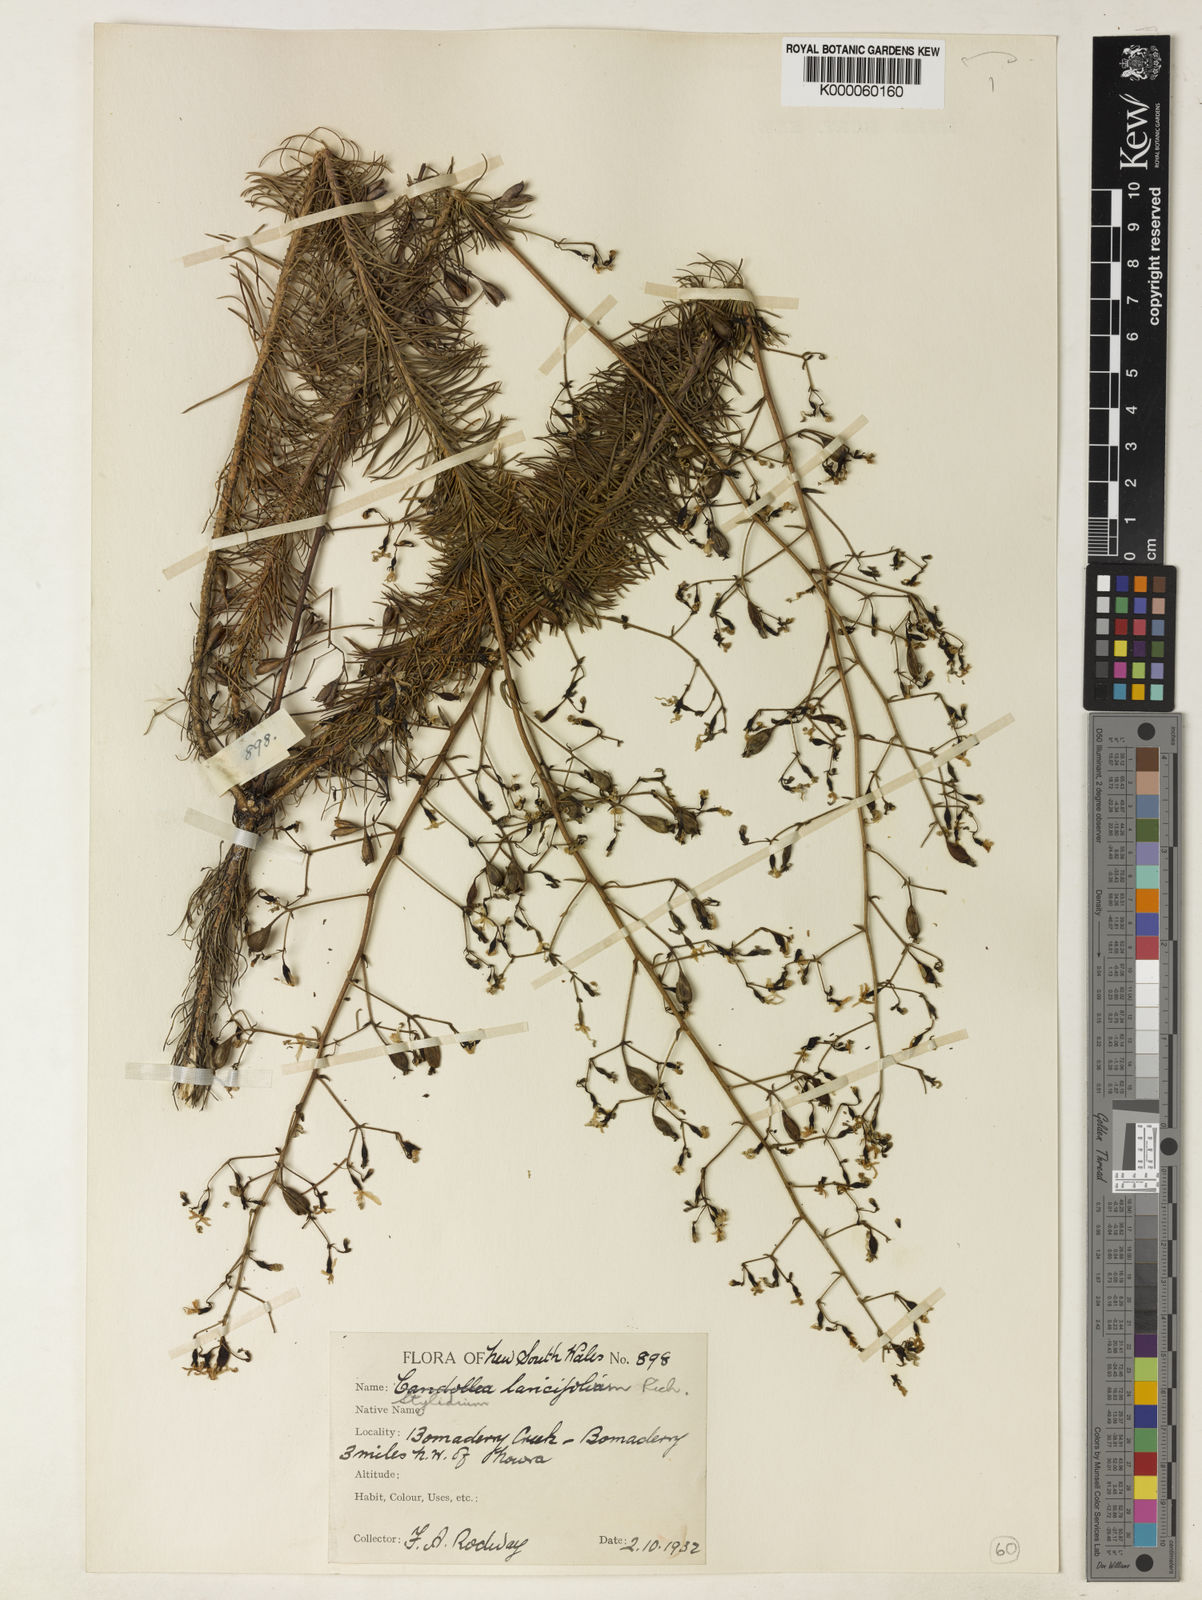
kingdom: Plantae
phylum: Tracheophyta
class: Magnoliopsida
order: Asterales
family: Stylidiaceae
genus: Stylidium
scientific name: Stylidium laricifolium
